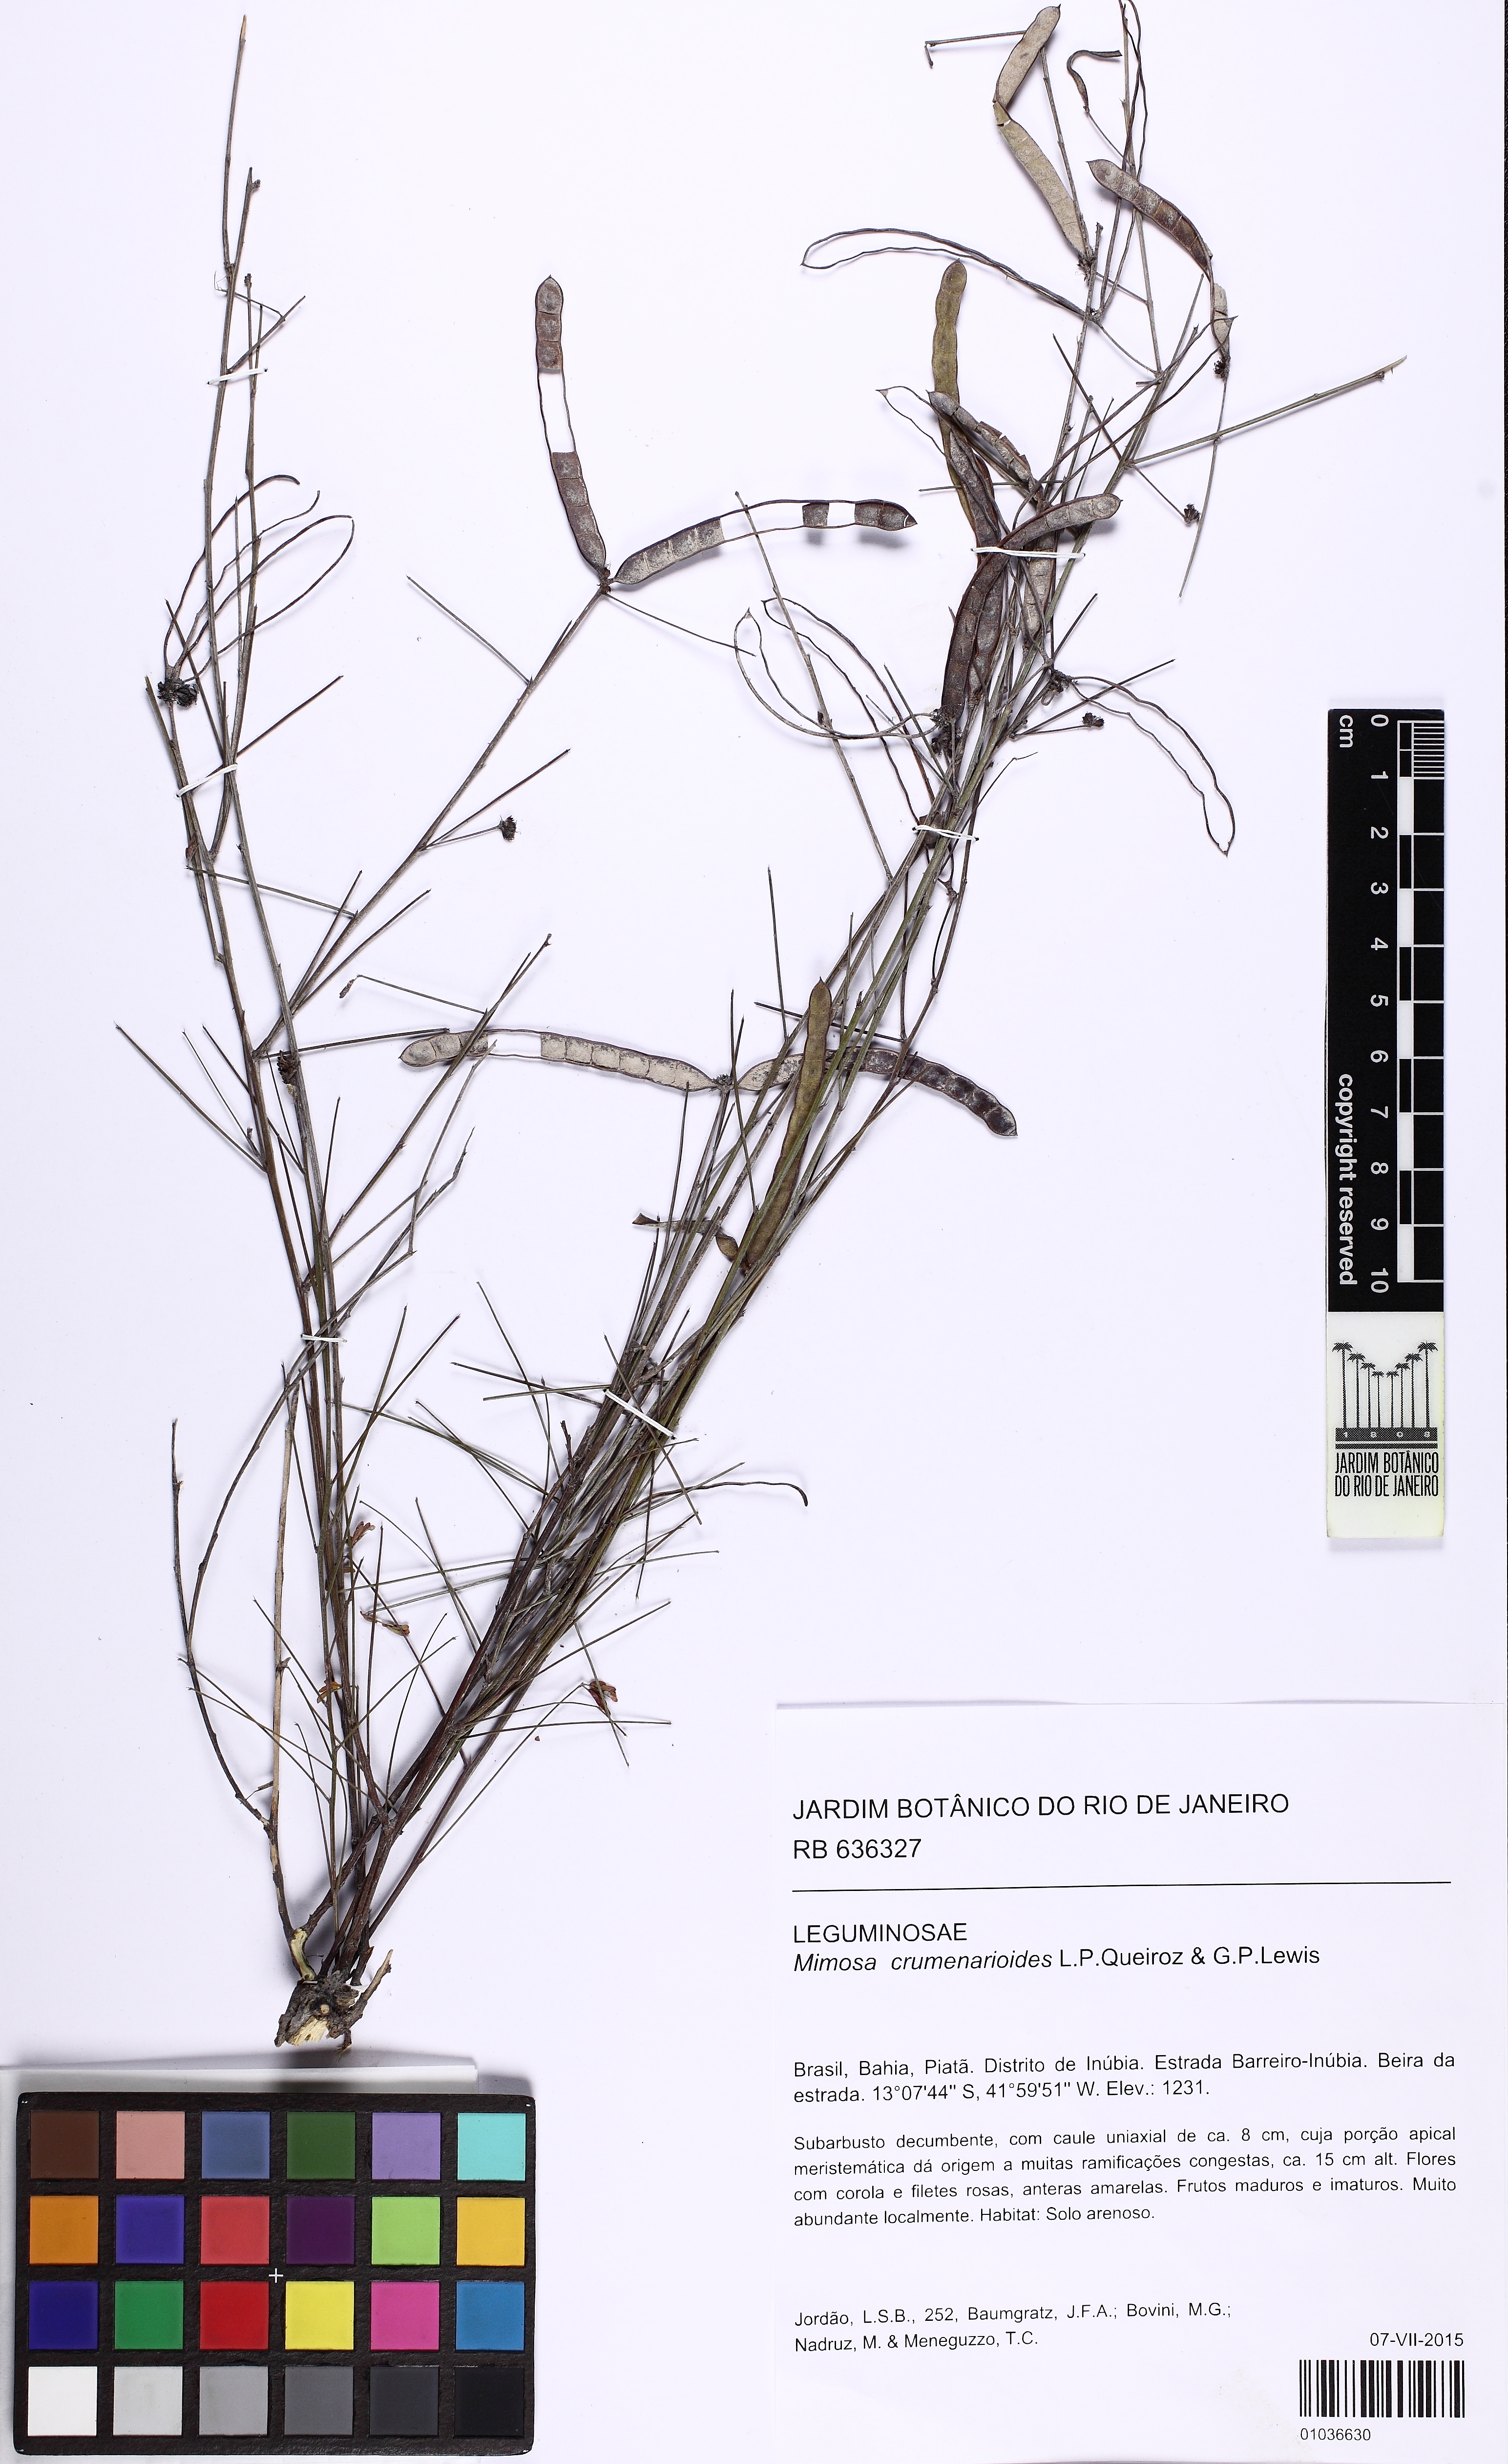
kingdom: Plantae
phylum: Tracheophyta
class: Magnoliopsida
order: Fabales
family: Fabaceae
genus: Mimosa
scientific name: Mimosa crumenarioides
